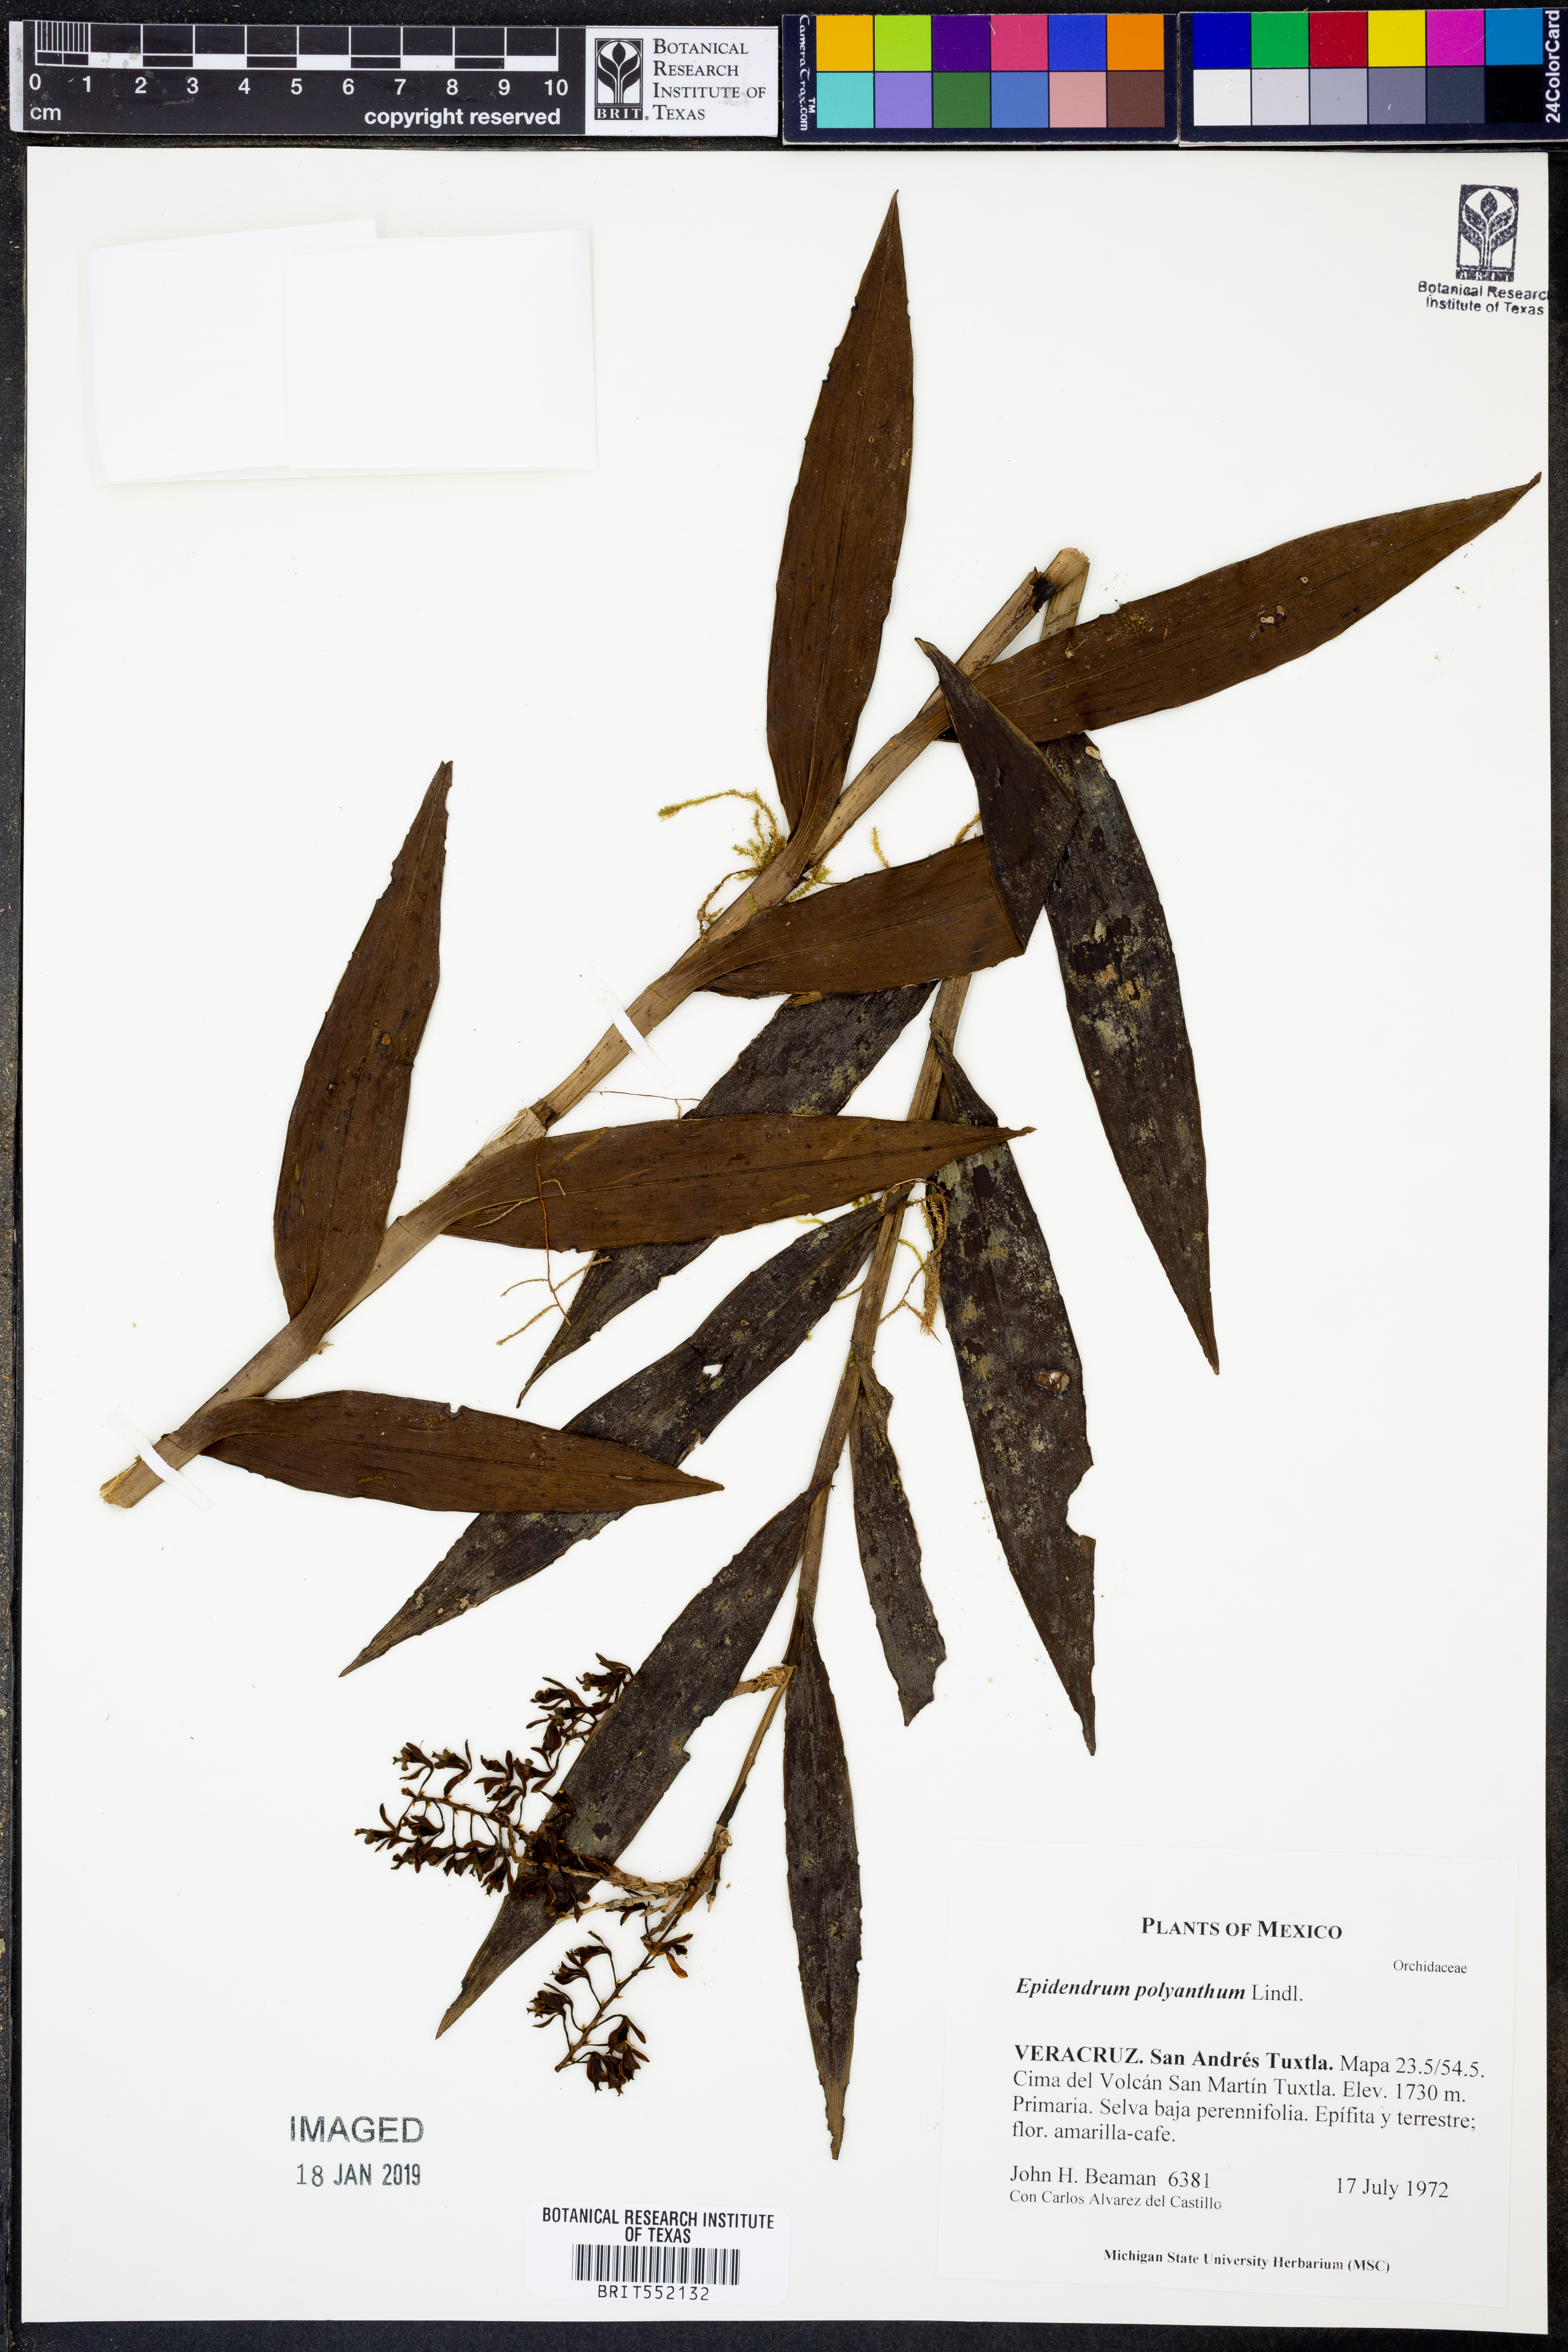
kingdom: Plantae
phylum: Tracheophyta
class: Liliopsida
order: Asparagales
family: Orchidaceae
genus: Epidendrum
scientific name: Epidendrum polyanthum
